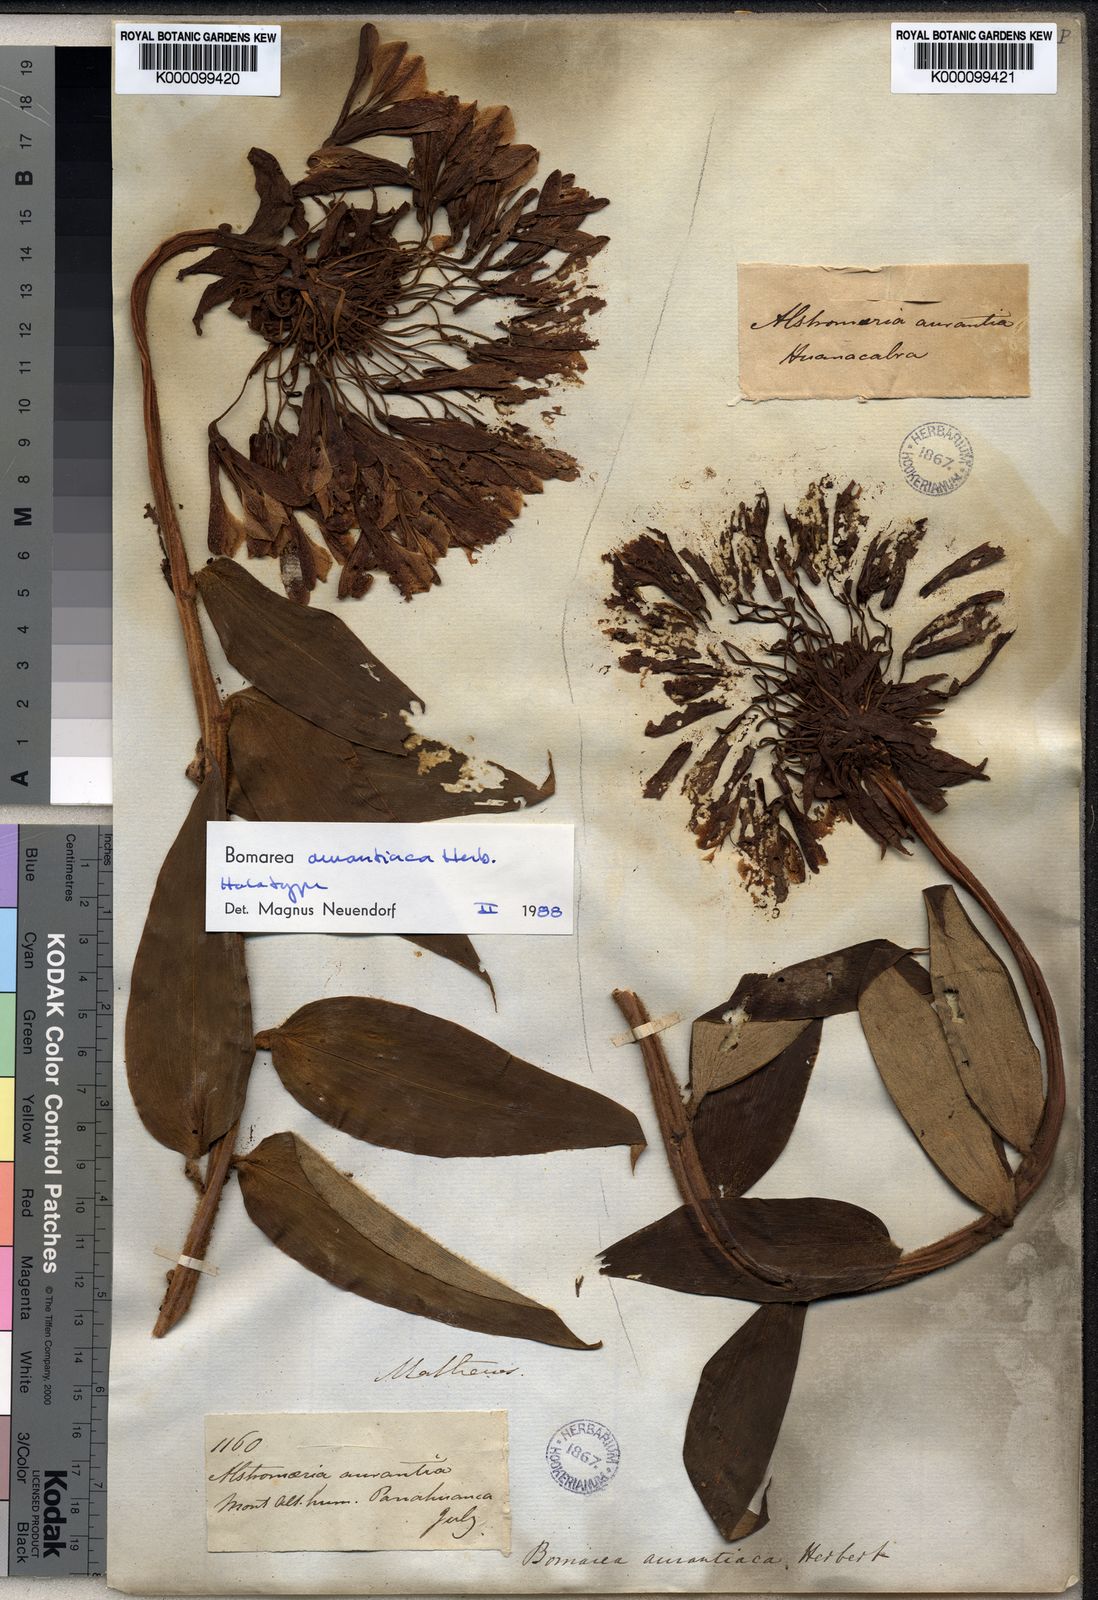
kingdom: Plantae
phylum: Tracheophyta
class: Liliopsida
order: Liliales
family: Alstroemeriaceae
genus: Bomarea
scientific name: Bomarea aurantiaca
